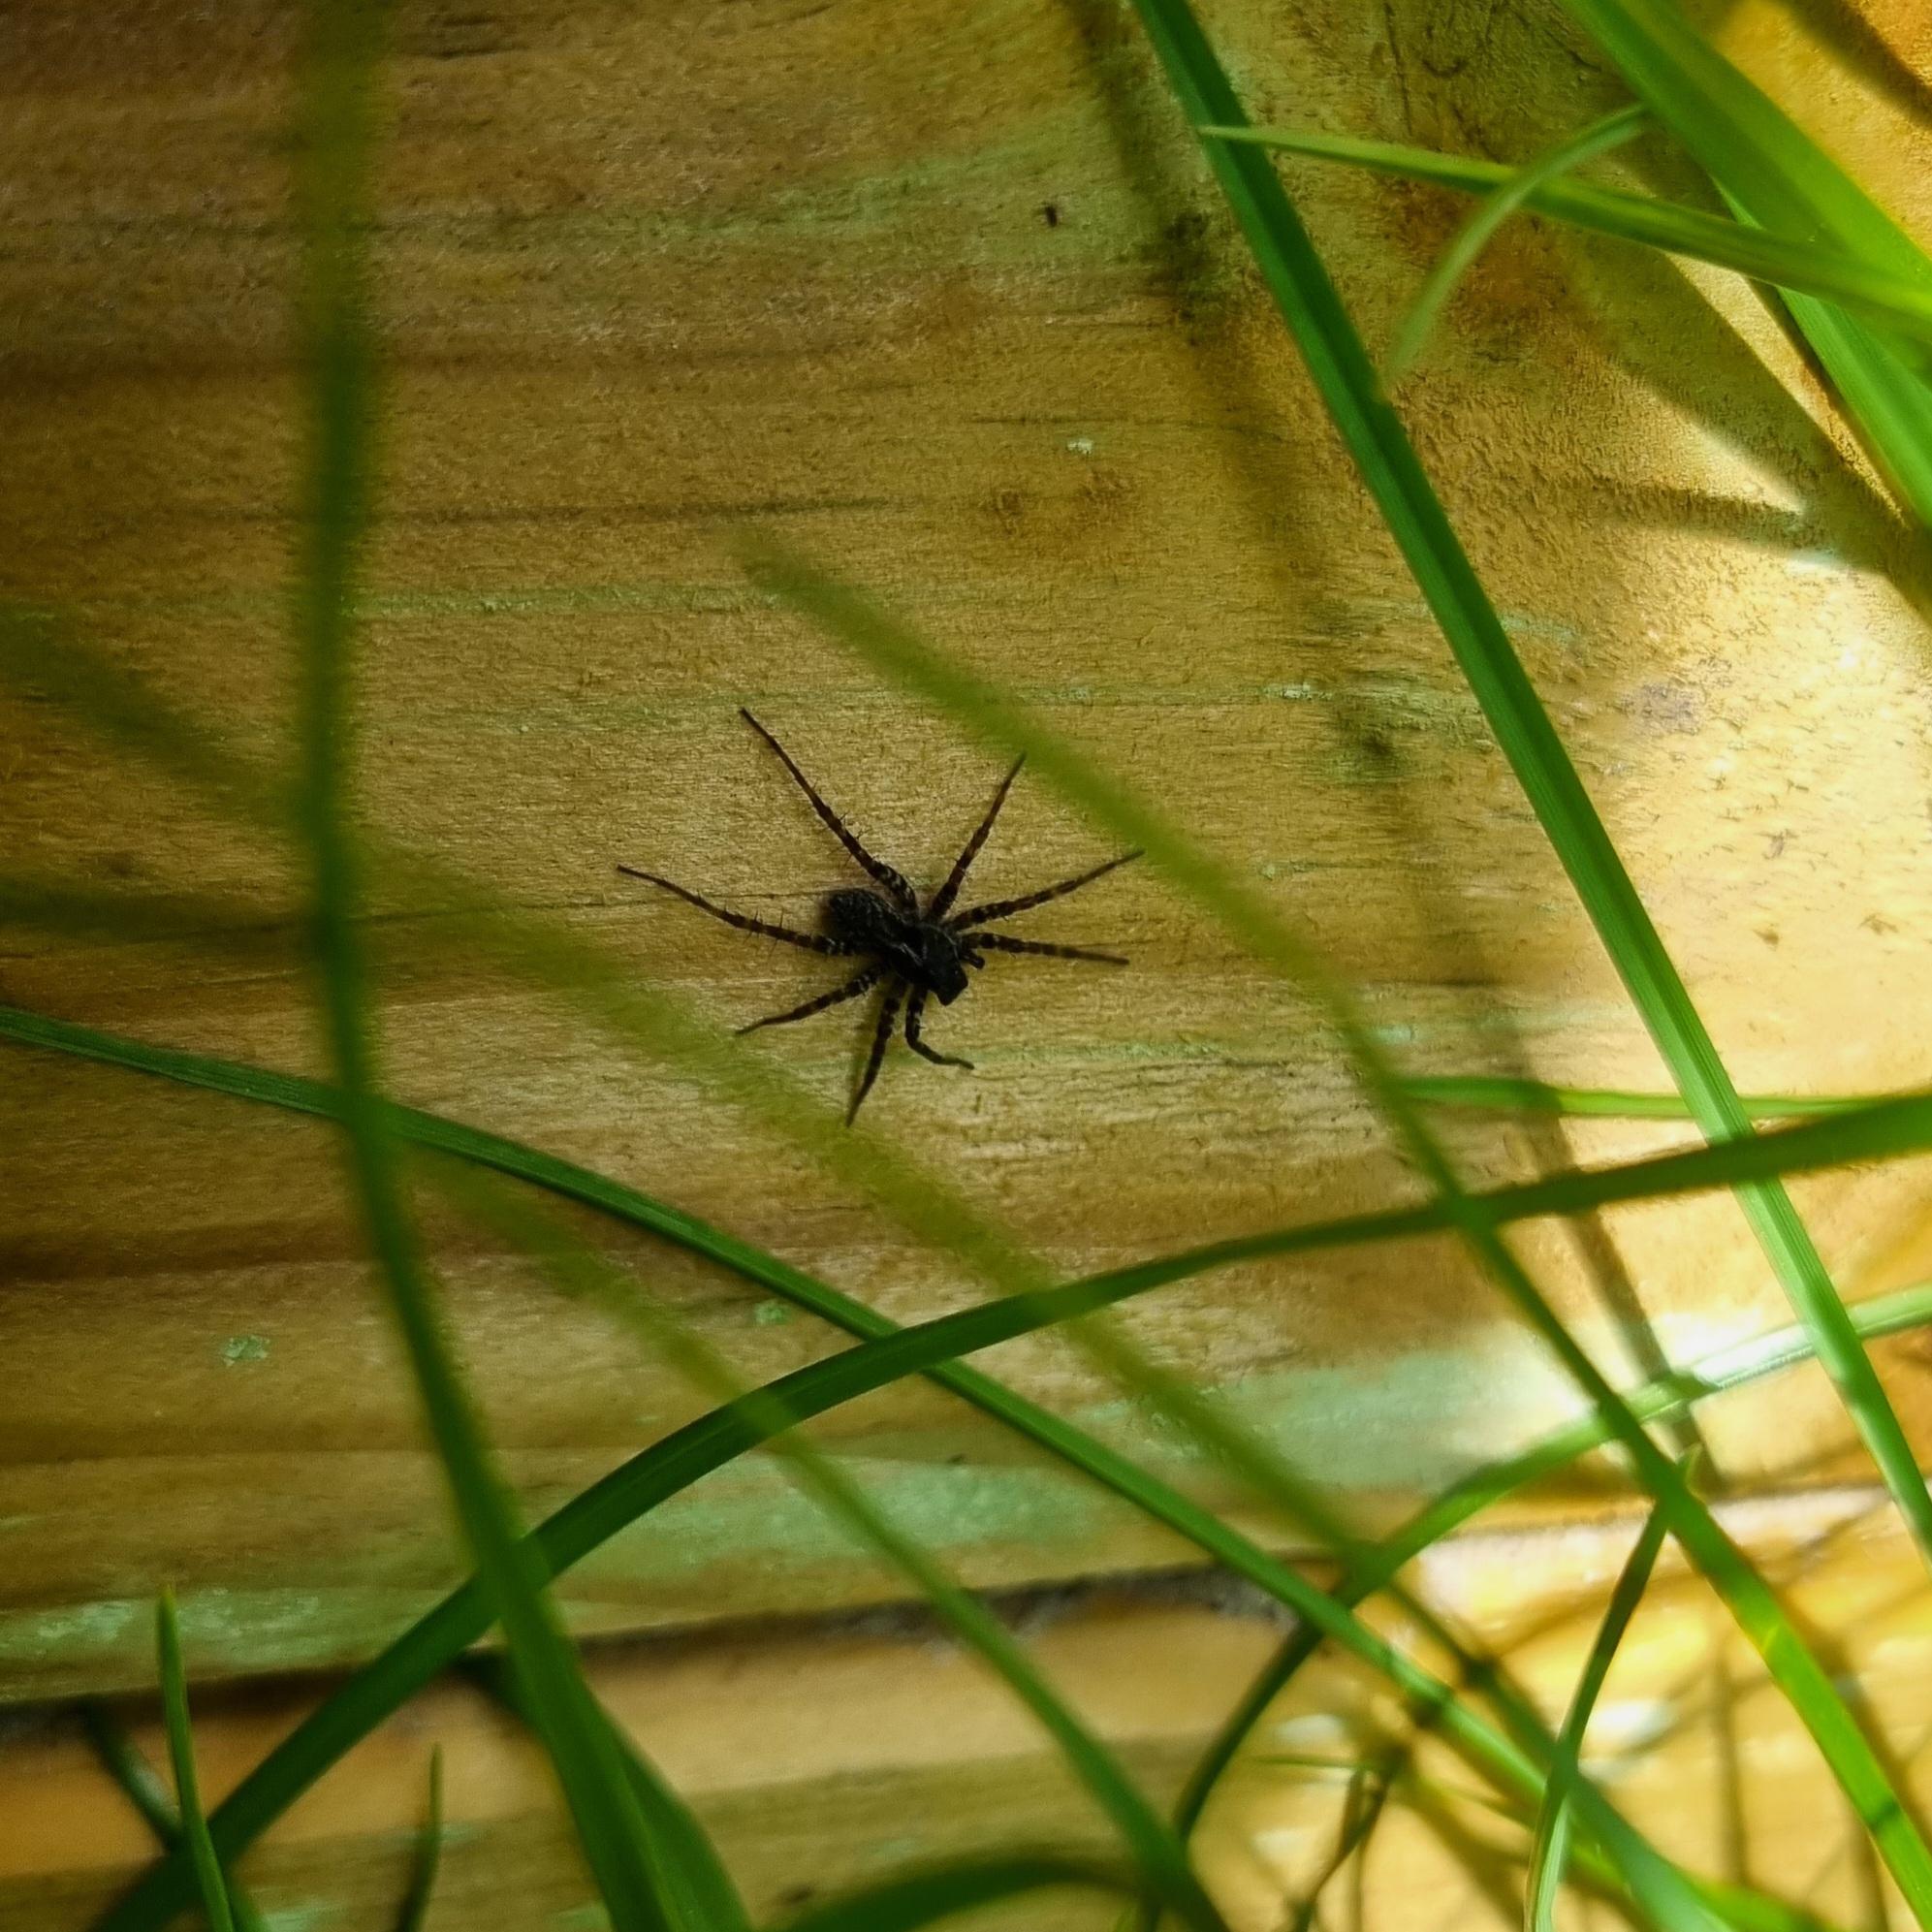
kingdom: Animalia
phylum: Arthropoda
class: Arachnida
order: Araneae
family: Lycosidae
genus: Pardosa
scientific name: Pardosa prativaga
